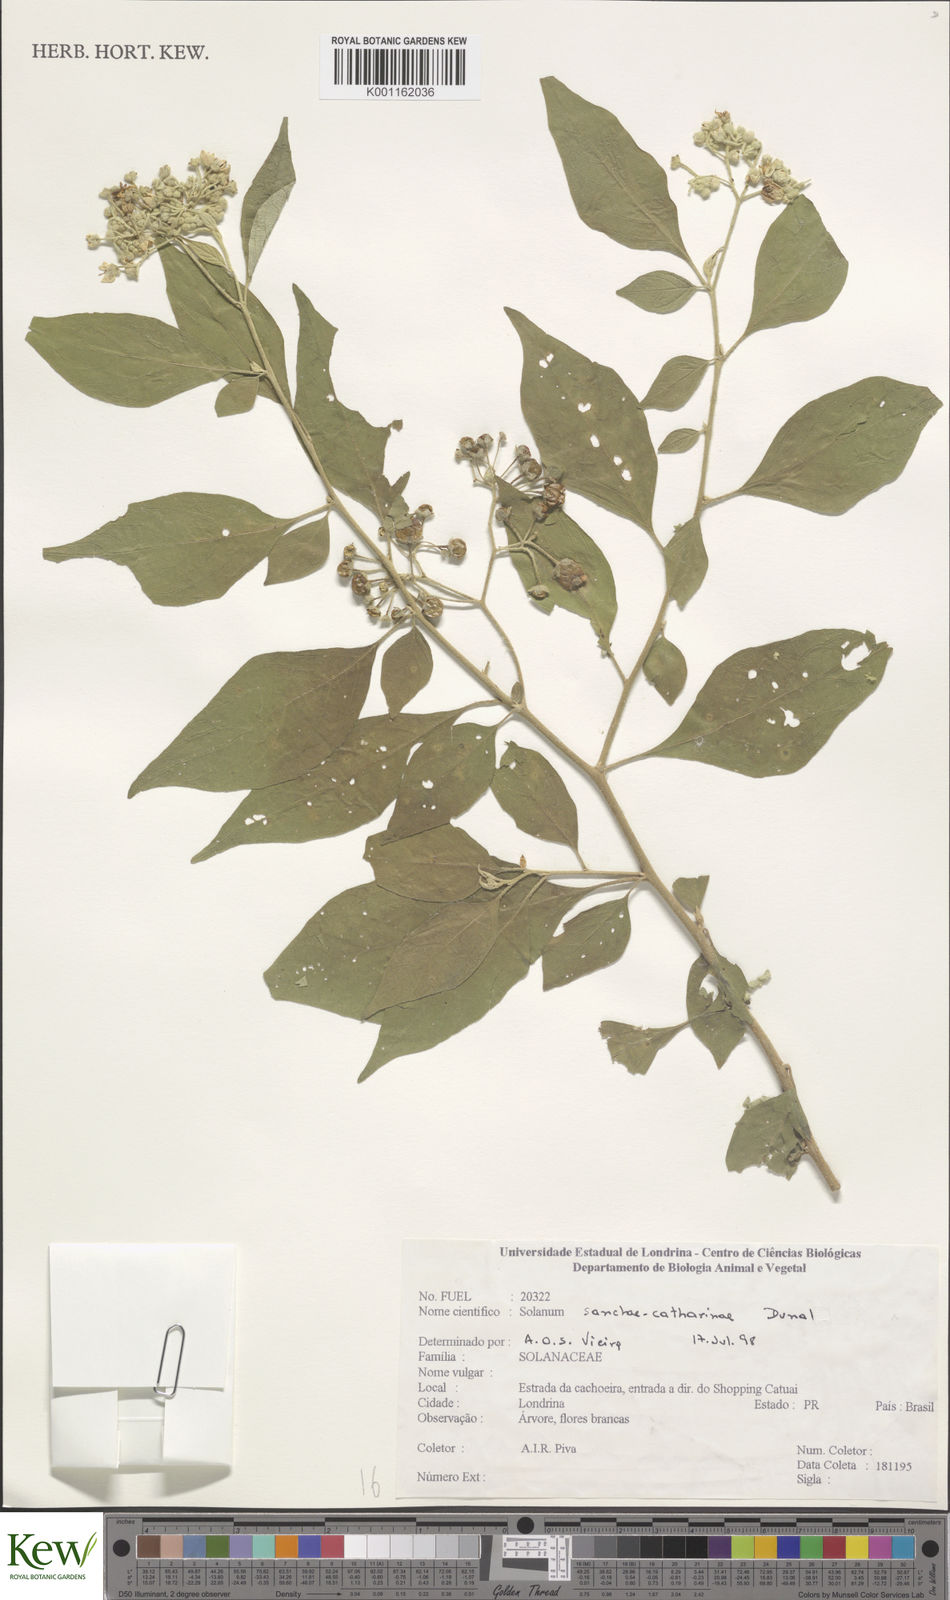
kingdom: Plantae
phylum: Tracheophyta
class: Magnoliopsida
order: Solanales
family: Solanaceae
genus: Solanum
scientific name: Solanum sanctae-catharinae
